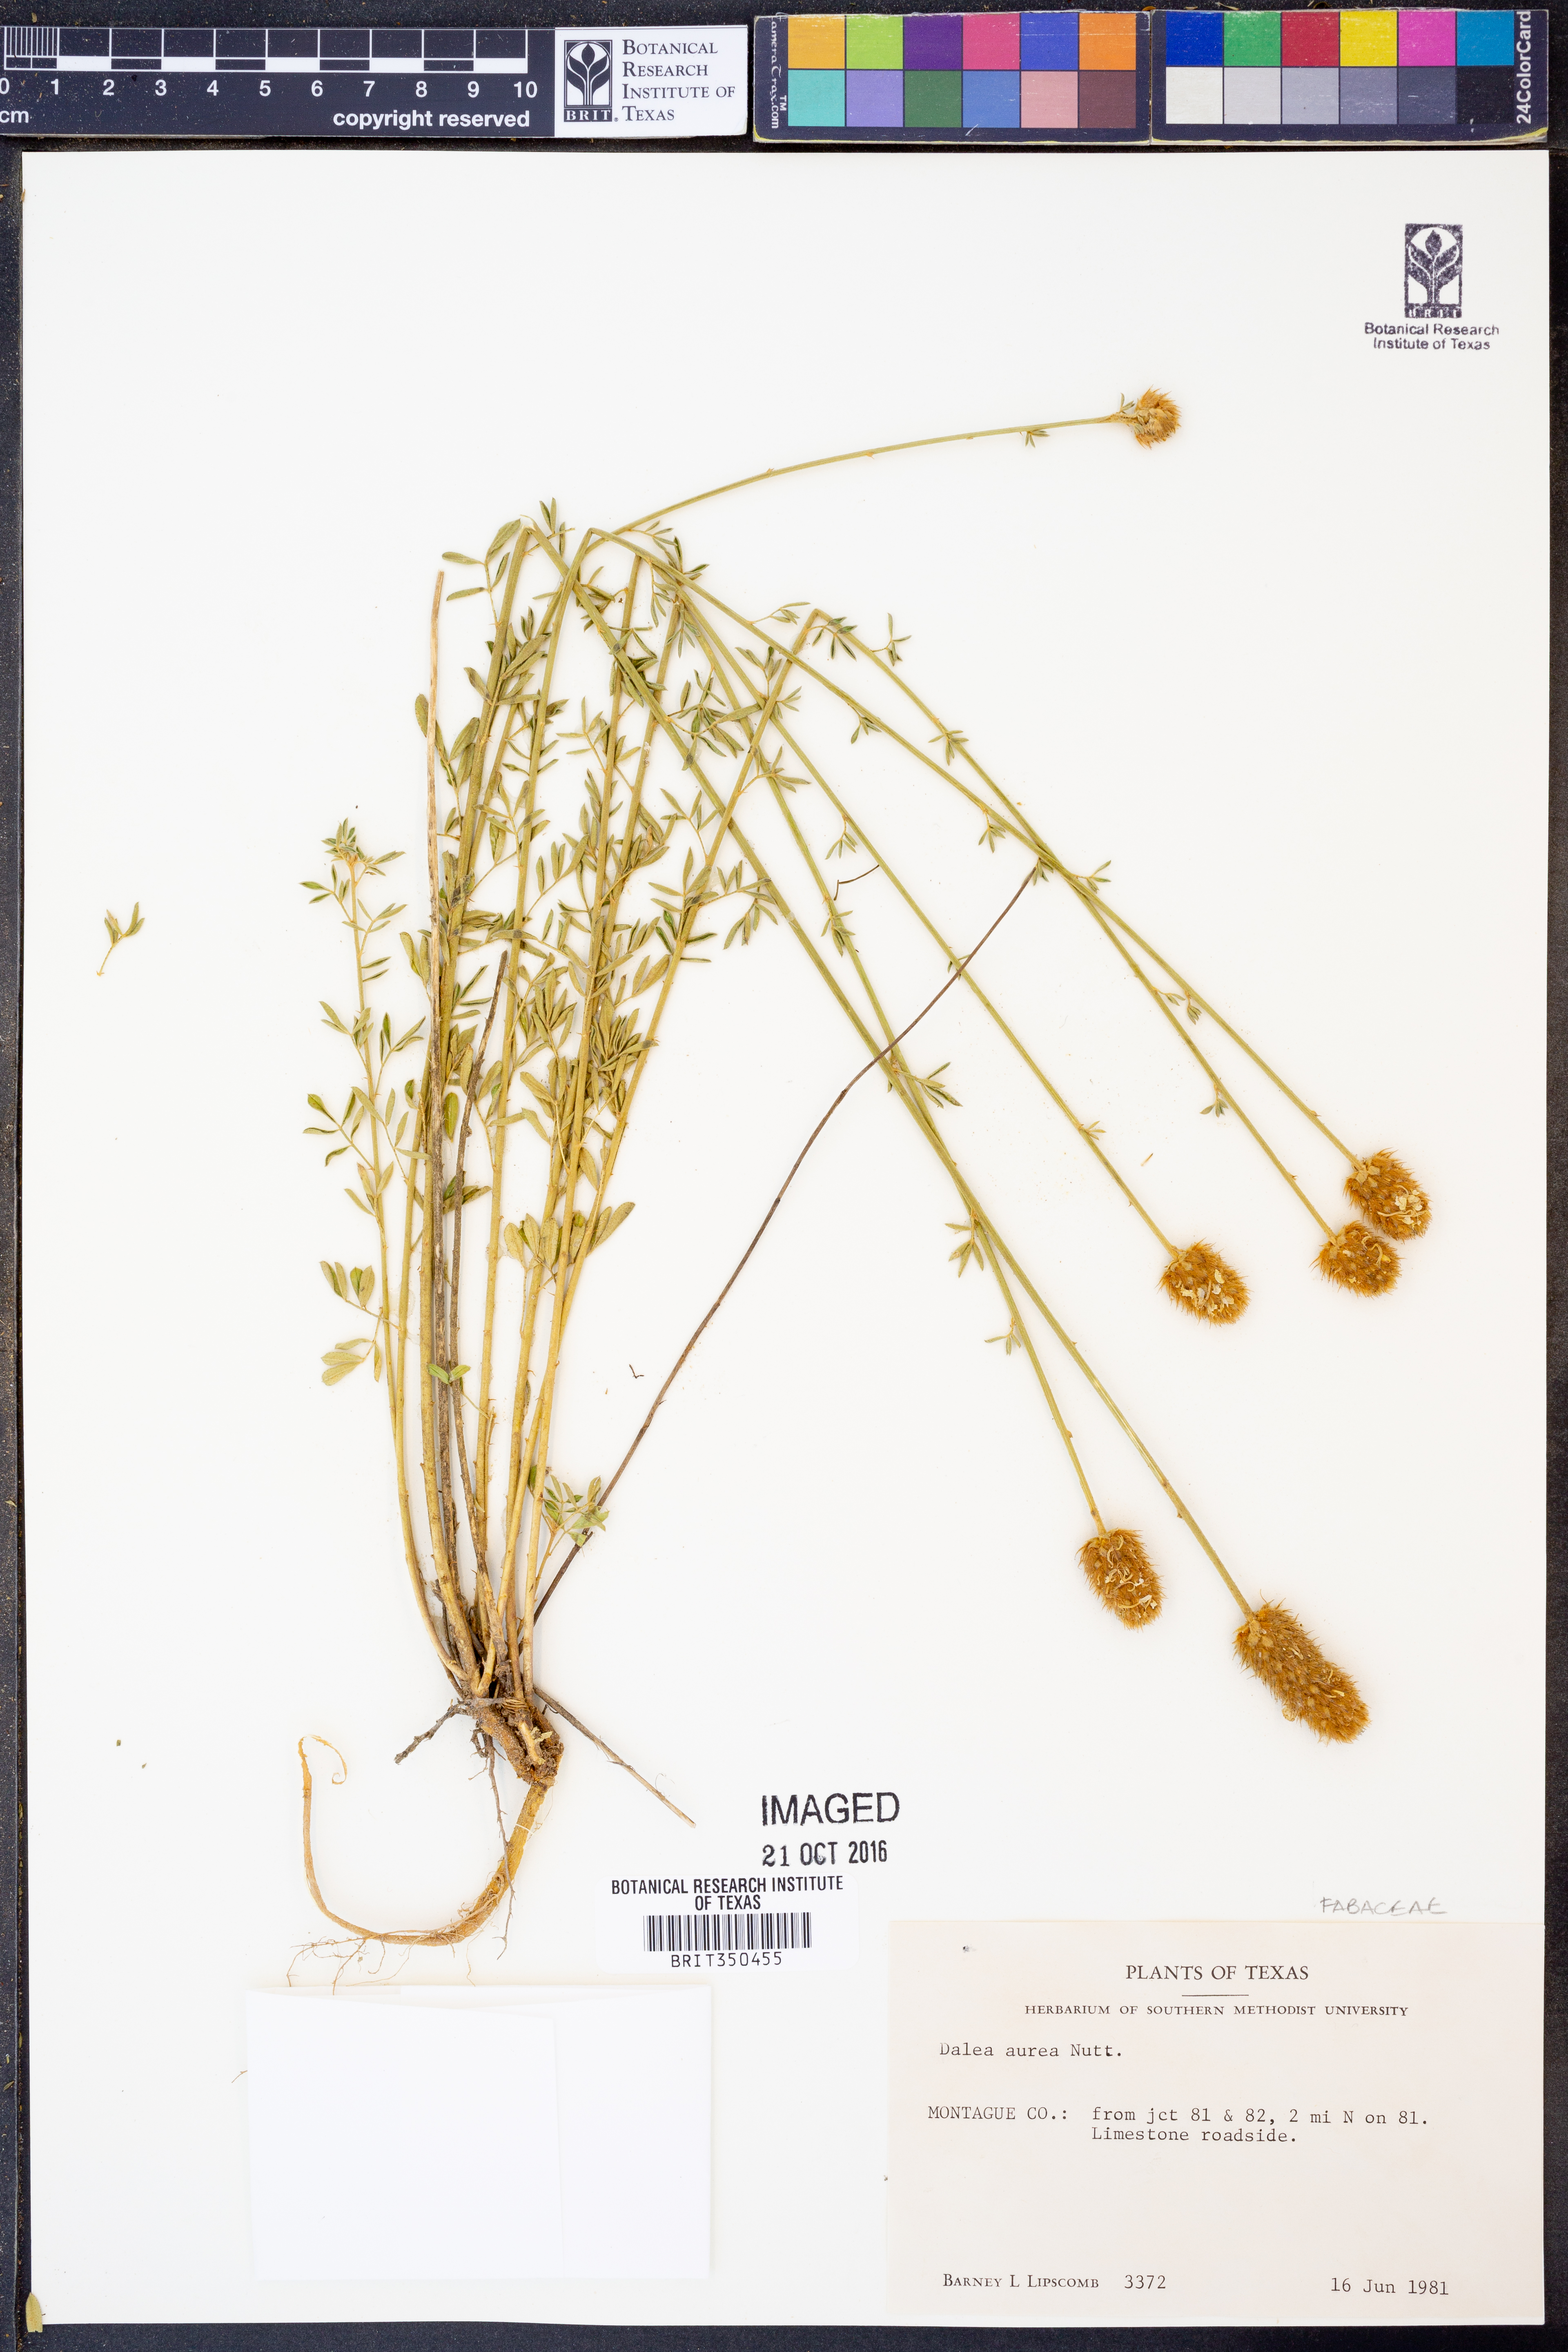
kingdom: Plantae
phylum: Tracheophyta
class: Magnoliopsida
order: Fabales
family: Fabaceae
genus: Dalea
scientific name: Dalea aurea
